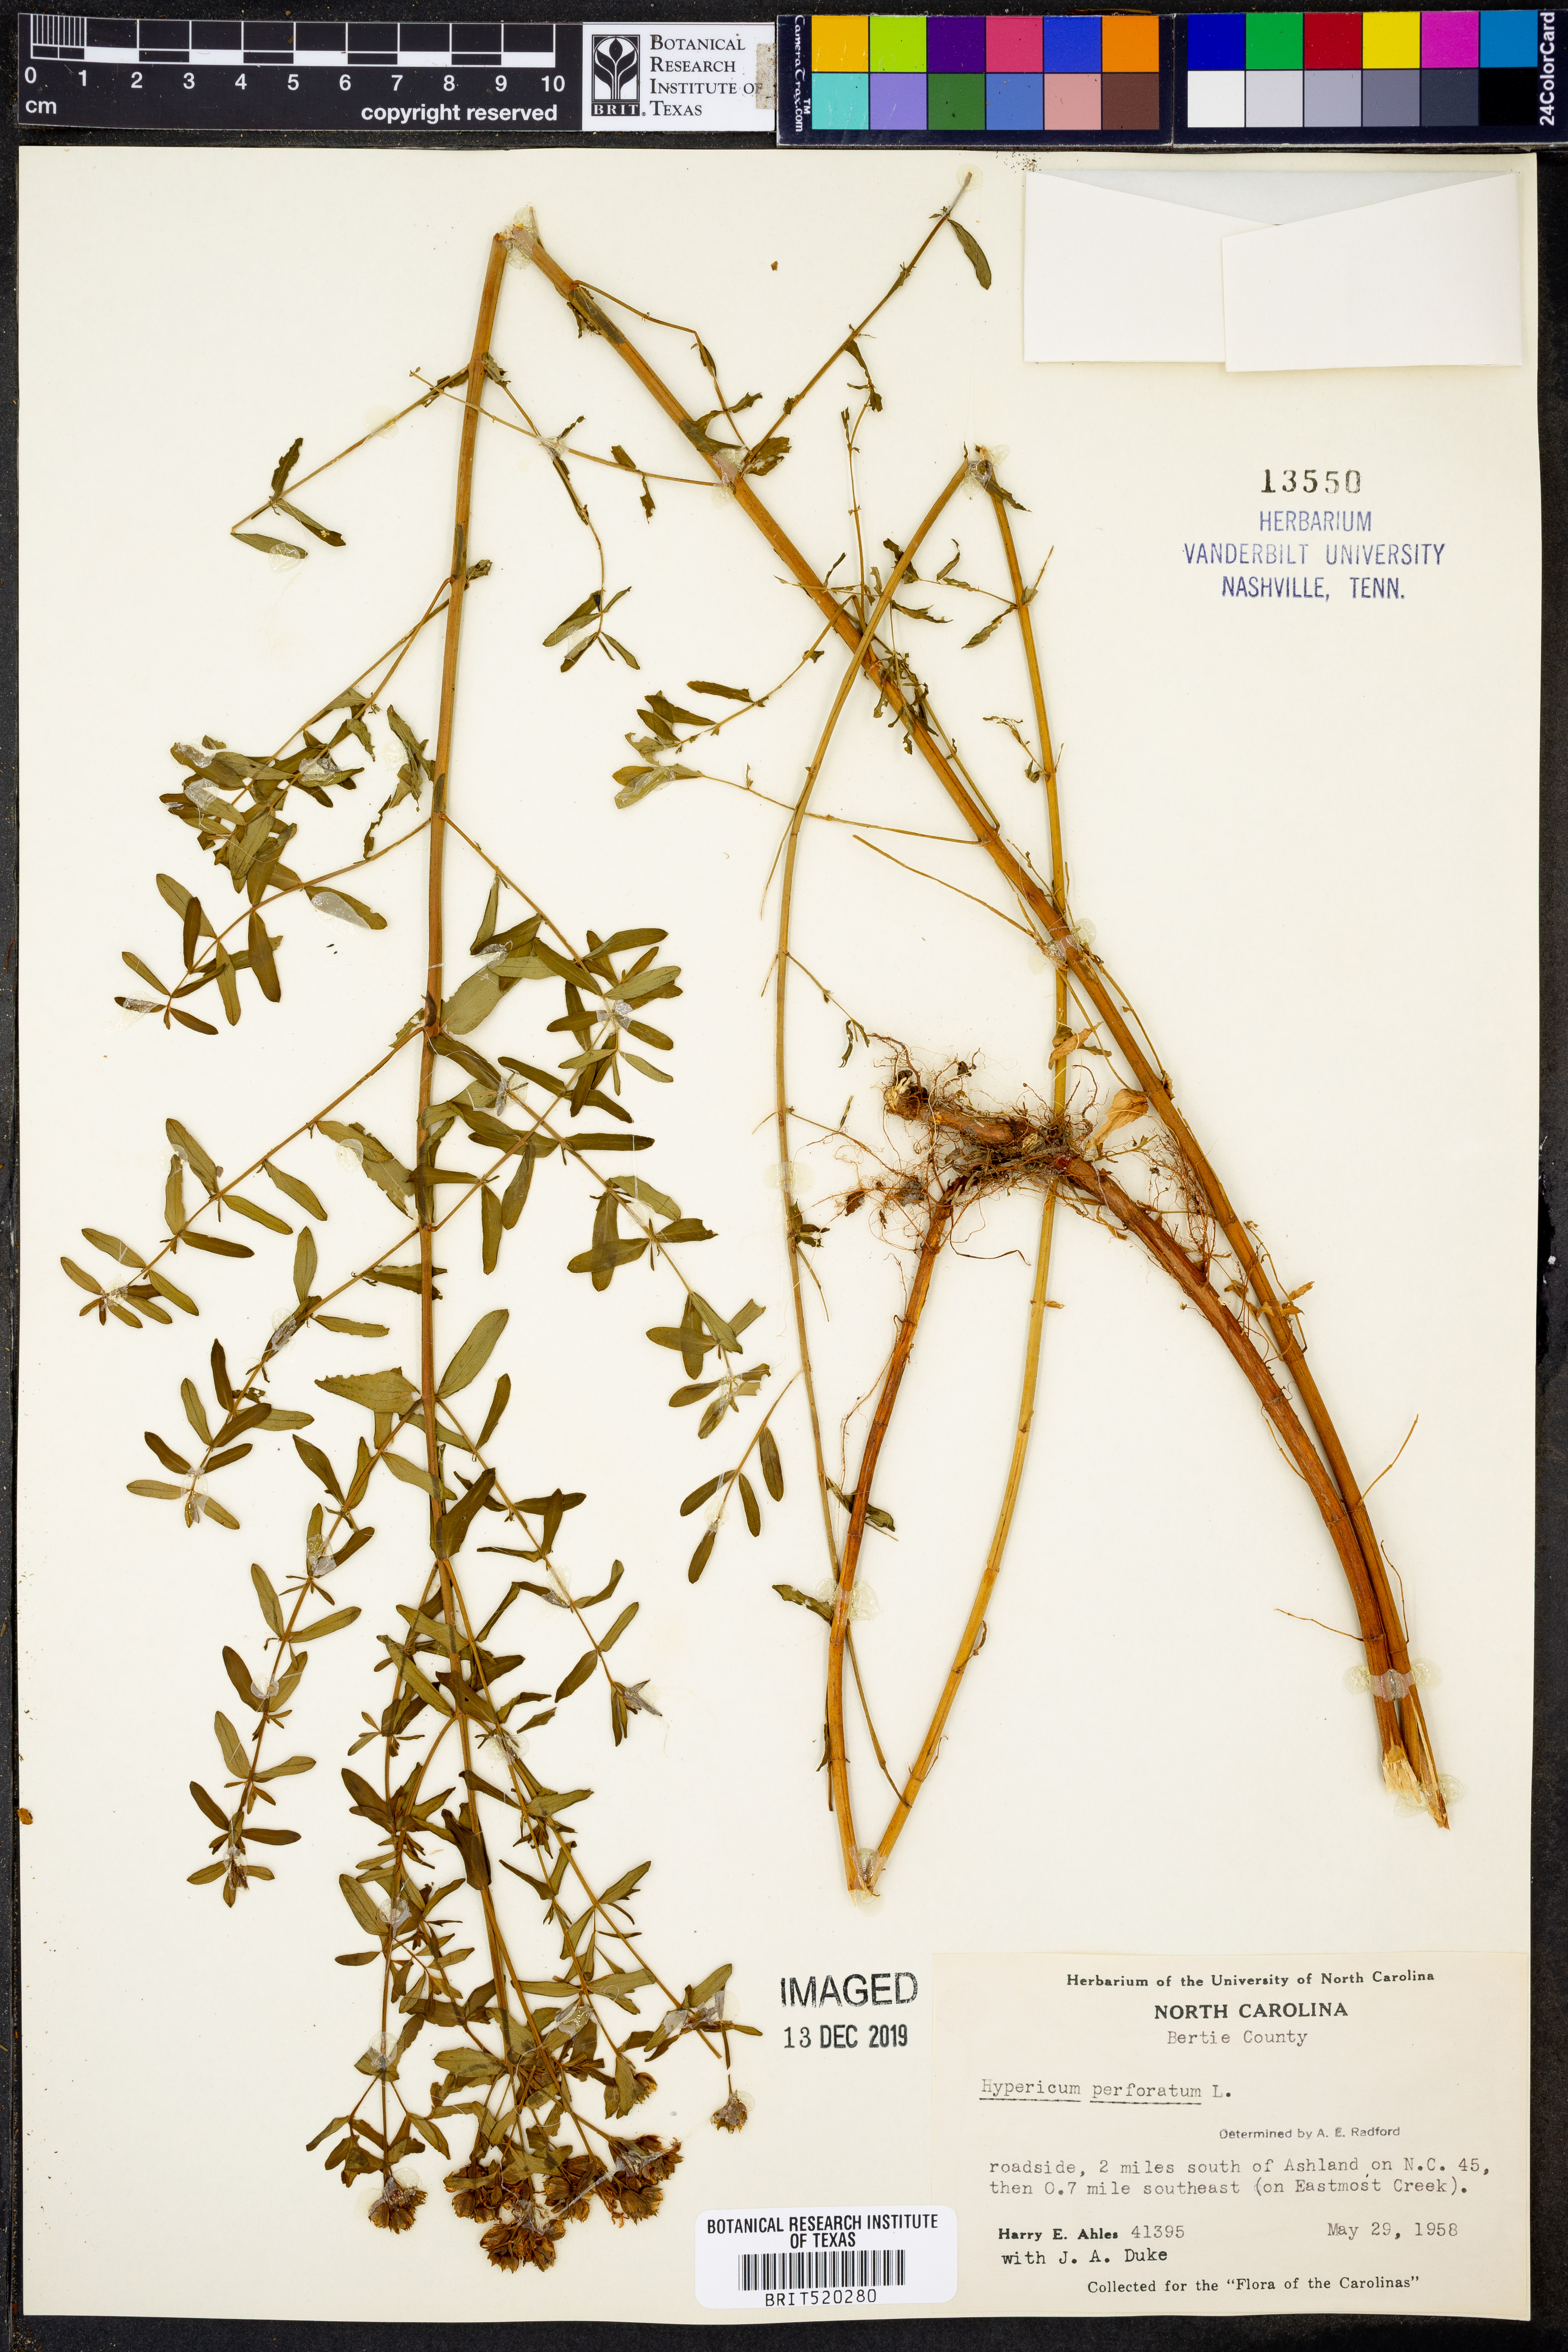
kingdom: Plantae
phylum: Tracheophyta
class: Magnoliopsida
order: Malpighiales
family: Hypericaceae
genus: Hypericum
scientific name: Hypericum perforatum
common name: Common st. johnswort
